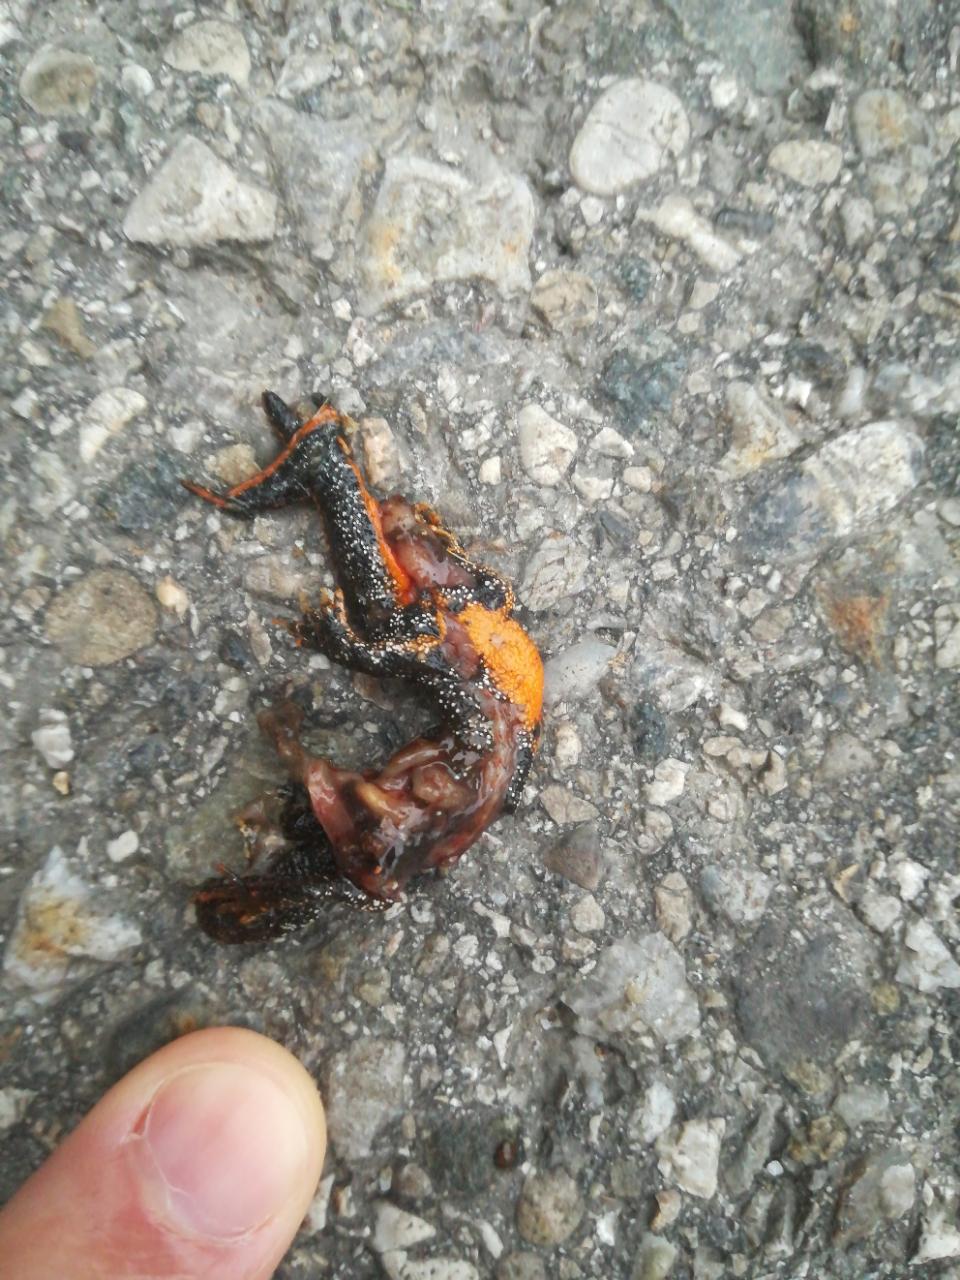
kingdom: Animalia
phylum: Chordata
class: Amphibia
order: Caudata
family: Salamandridae
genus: Ichthyosaura
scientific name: Ichthyosaura alpestris
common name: Alpine newt
